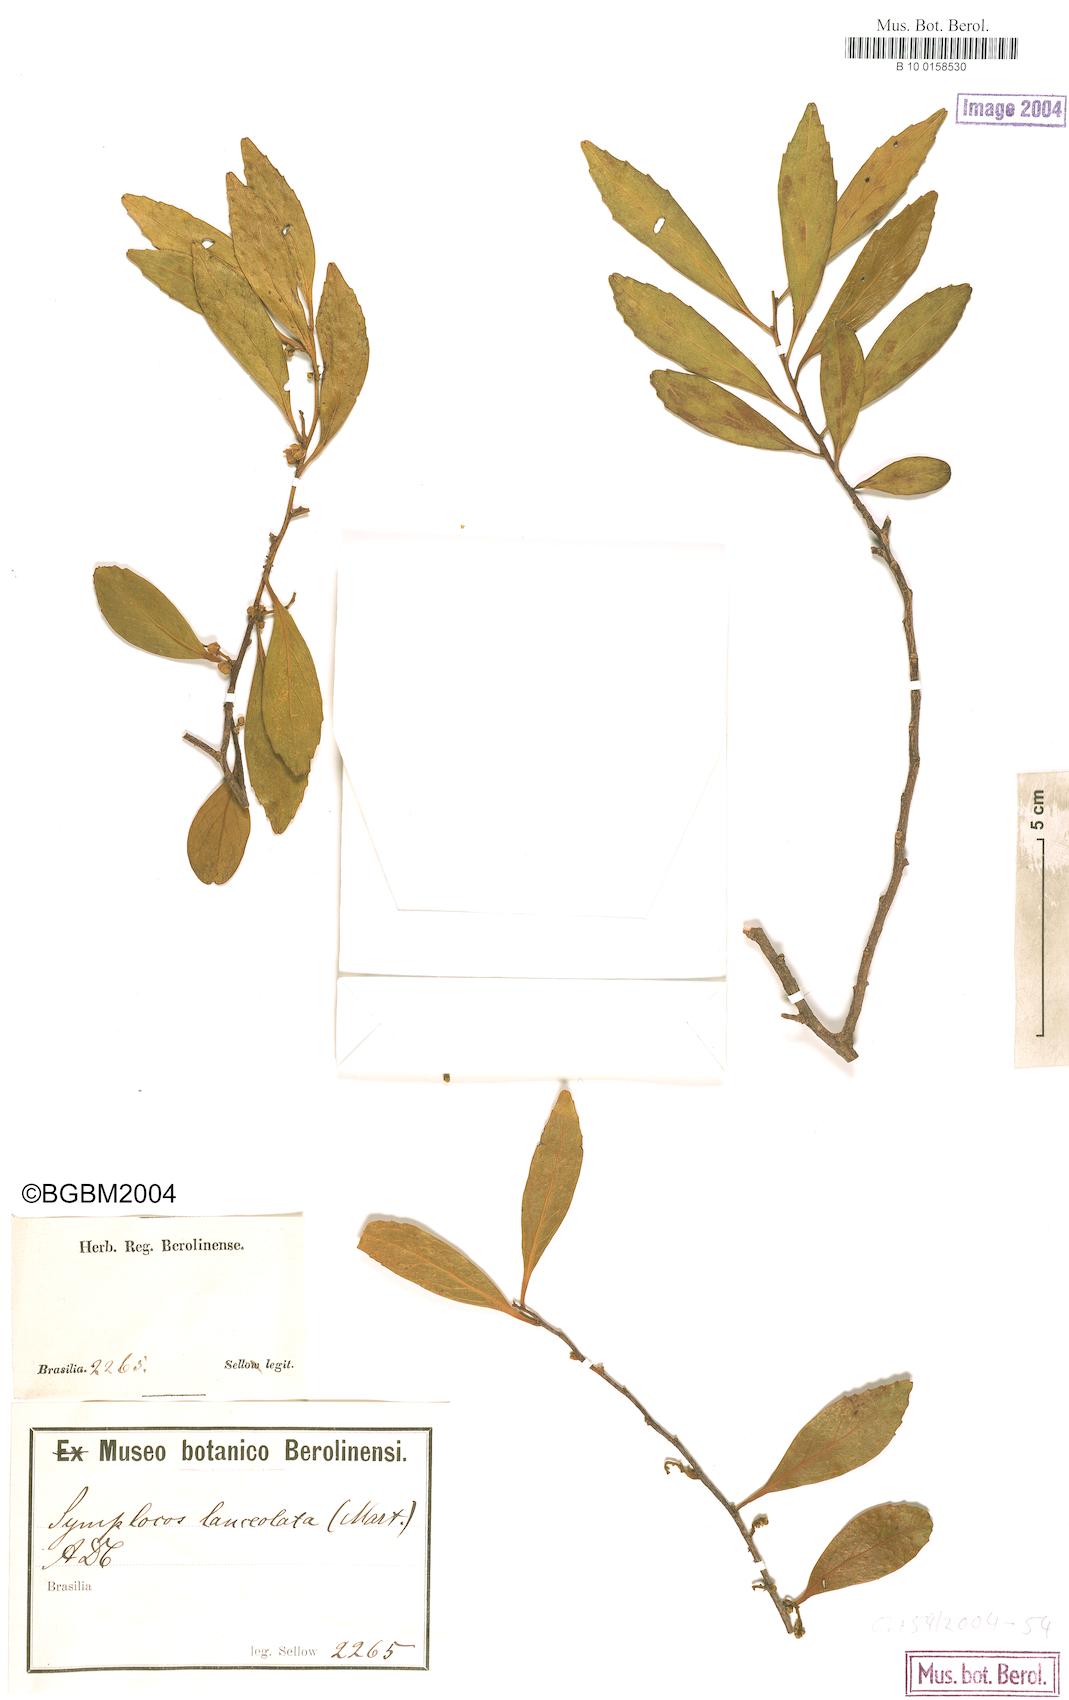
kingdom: Plantae
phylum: Tracheophyta
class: Magnoliopsida
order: Ericales
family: Symplocaceae
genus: Symplocos
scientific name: Symplocos oblongifolia
